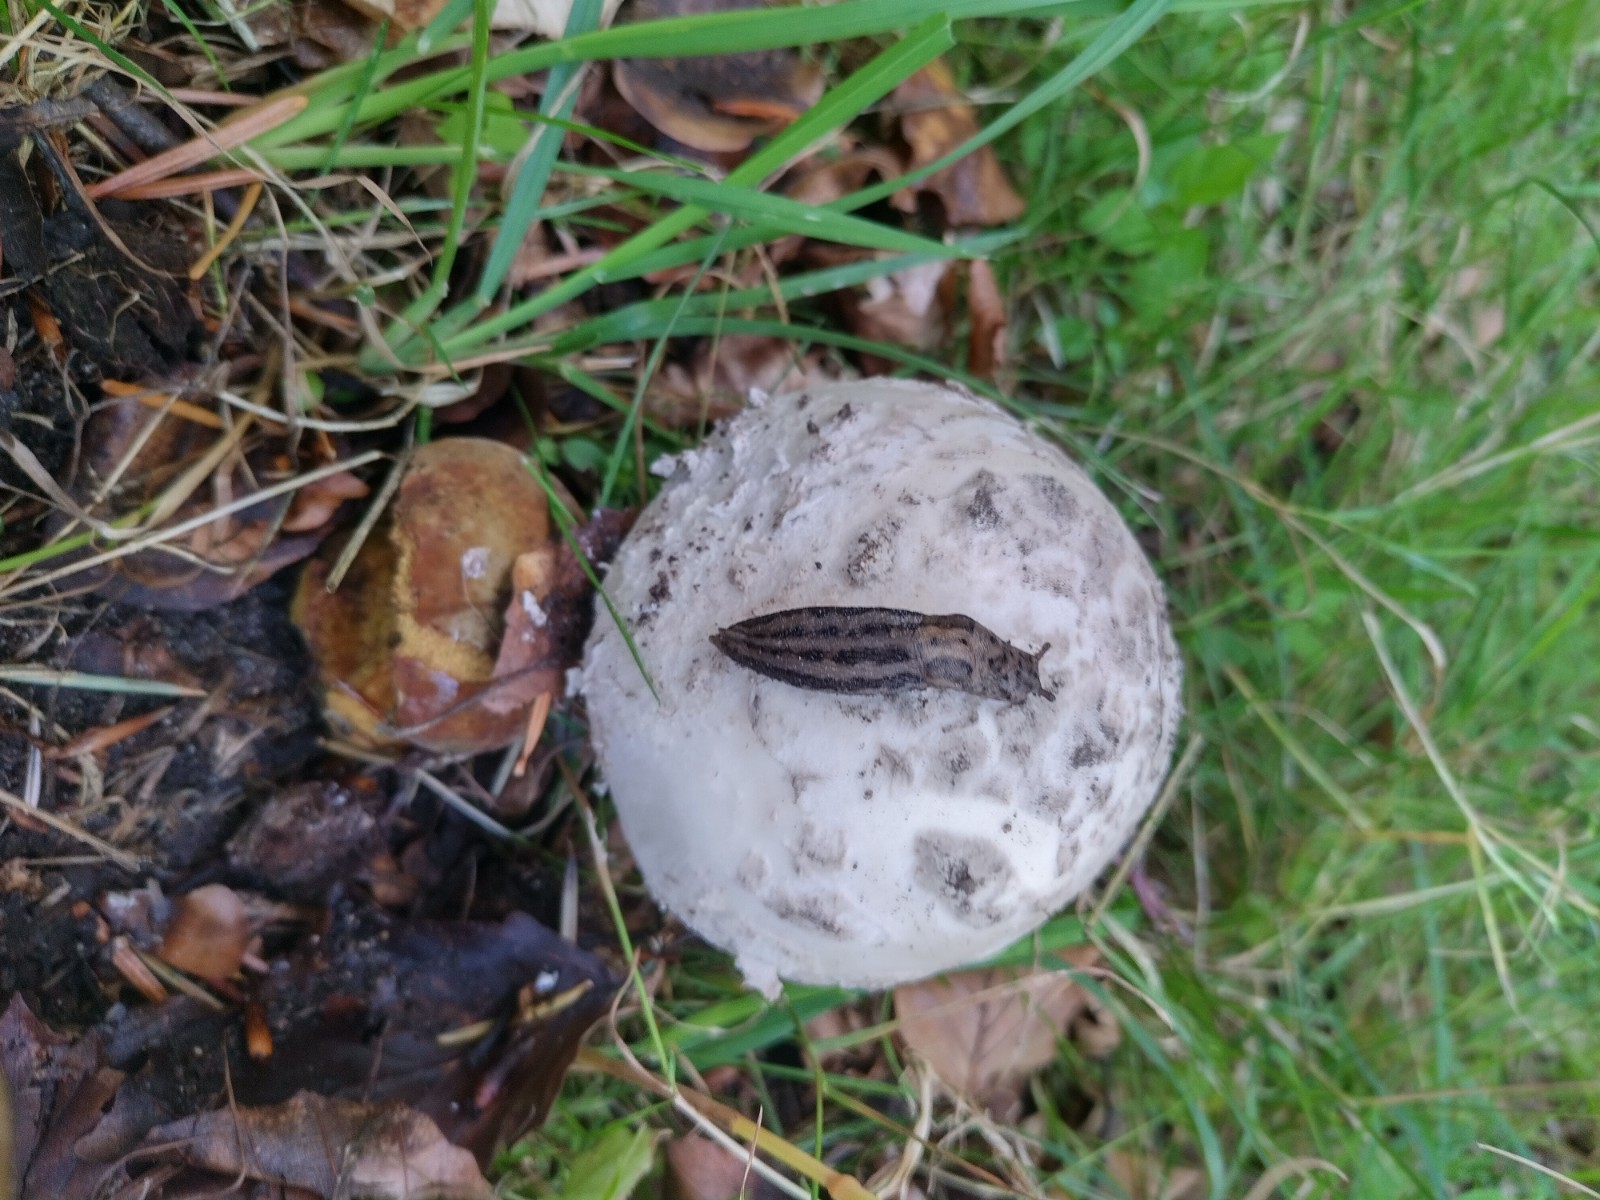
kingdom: Fungi
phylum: Basidiomycota
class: Agaricomycetes
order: Agaricales
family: Amanitaceae
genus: Amanita
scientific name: Amanita
